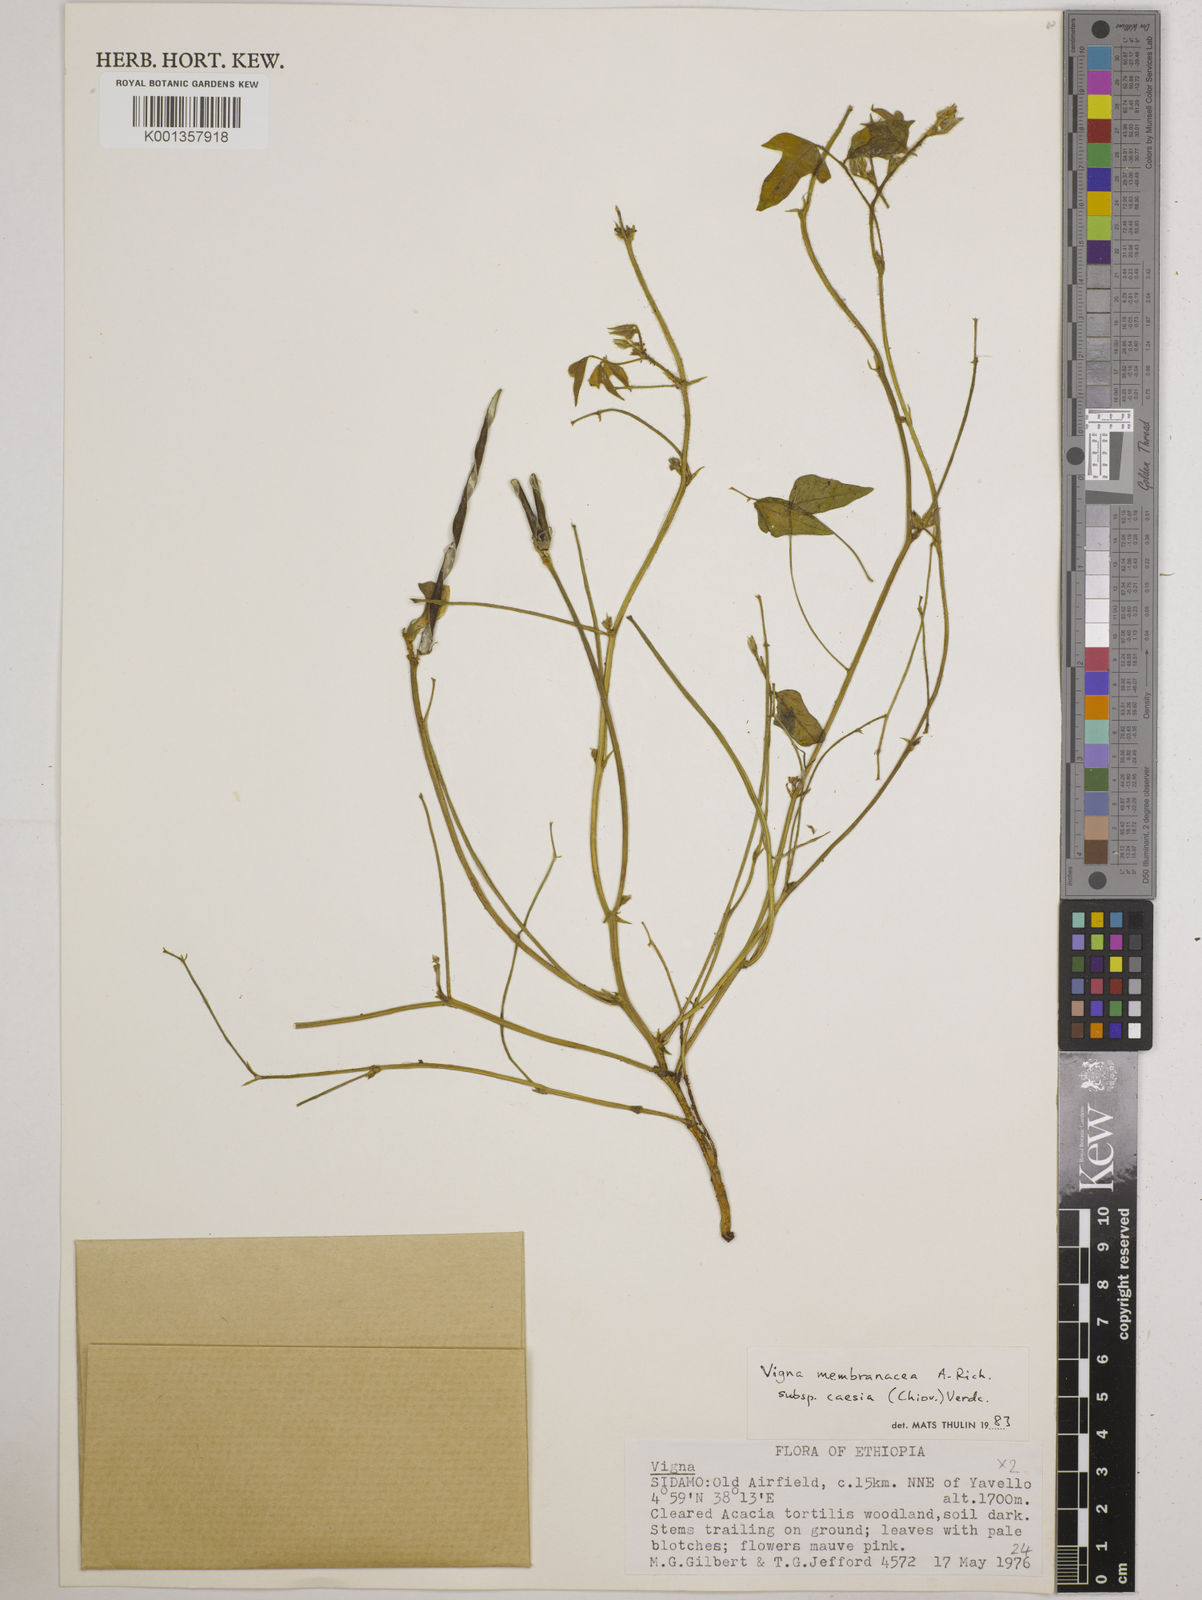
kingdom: Plantae
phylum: Tracheophyta
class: Magnoliopsida
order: Fabales
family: Fabaceae
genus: Vigna
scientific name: Vigna
